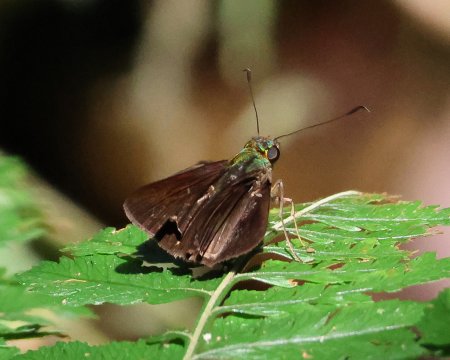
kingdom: Animalia
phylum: Arthropoda
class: Insecta
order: Lepidoptera
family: Hesperiidae
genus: Cynea
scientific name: Cynea anthracinus
